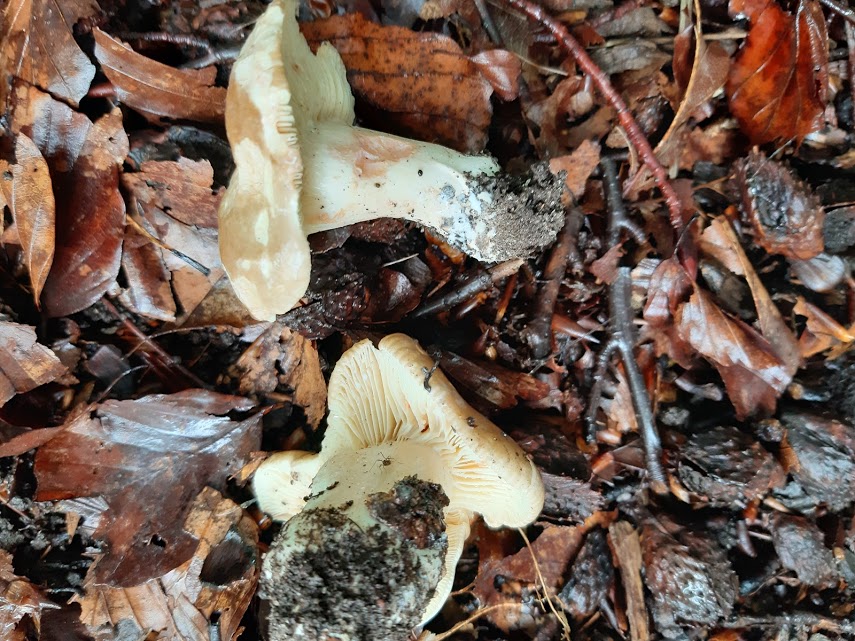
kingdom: Fungi
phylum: Basidiomycota
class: Agaricomycetes
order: Russulales
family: Russulaceae
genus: Lactarius
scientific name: Lactarius
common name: mælkehat
